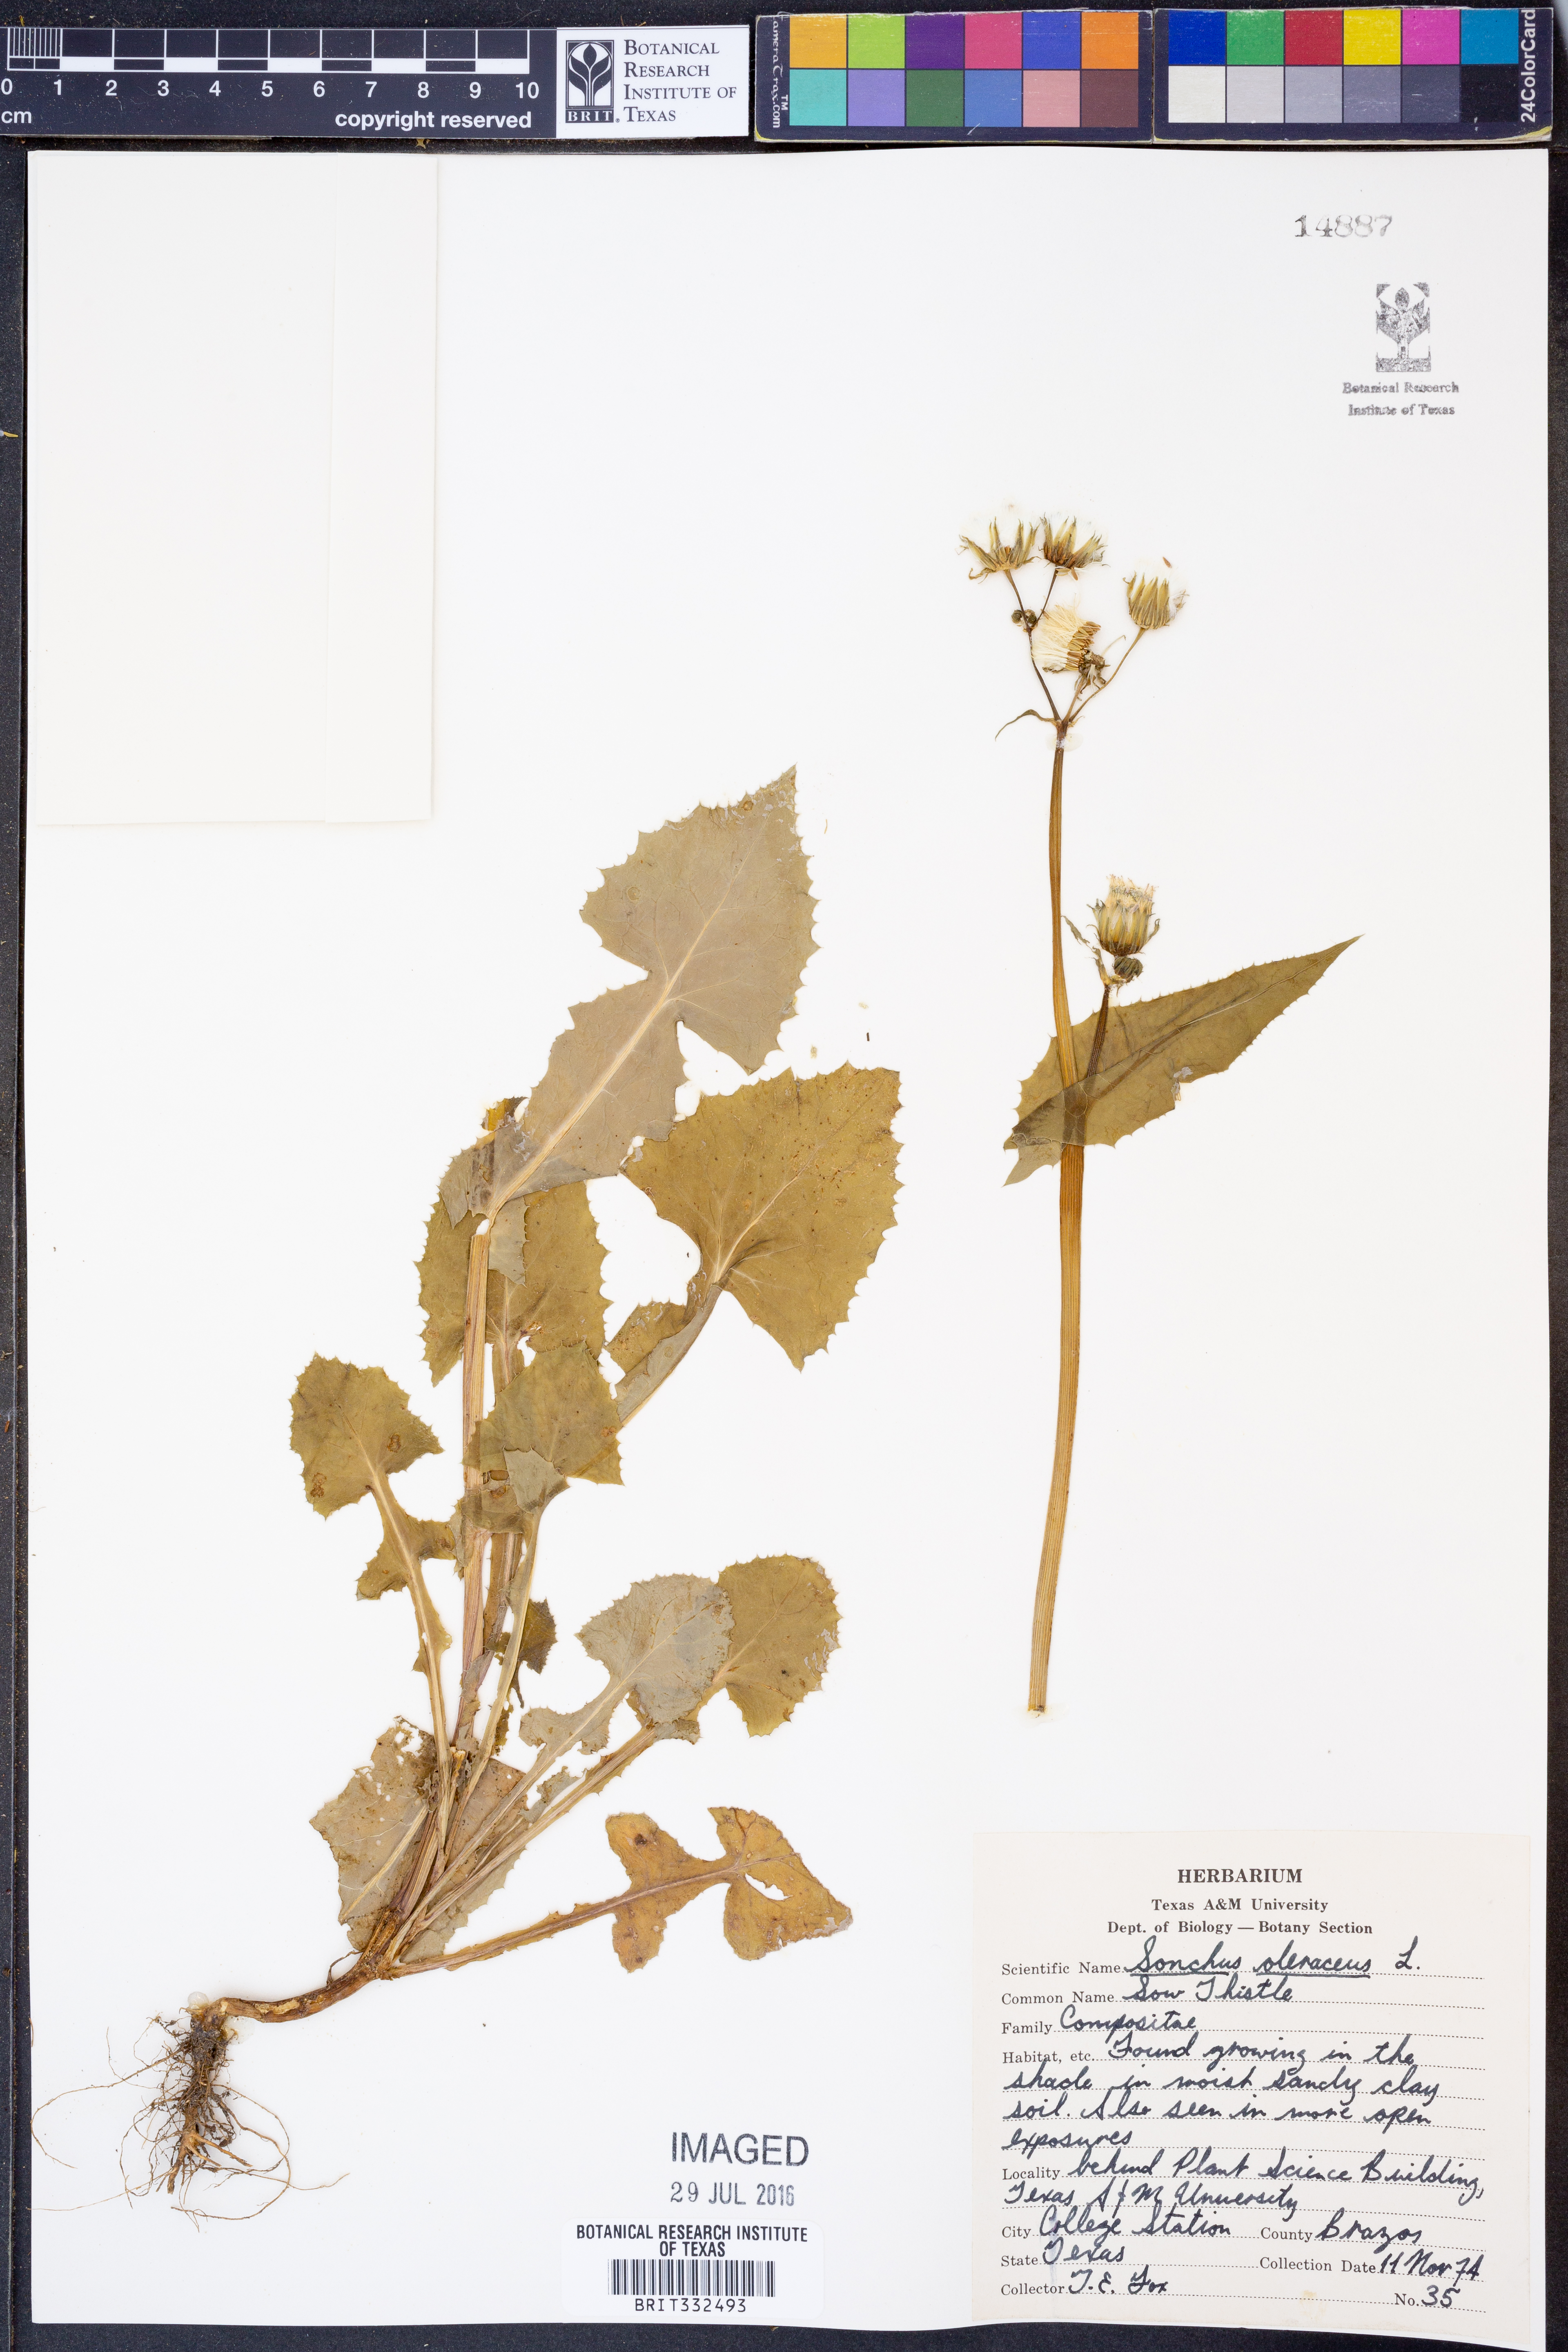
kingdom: Plantae
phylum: Tracheophyta
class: Magnoliopsida
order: Asterales
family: Asteraceae
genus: Sonchus
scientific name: Sonchus oleraceus
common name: Common sowthistle
